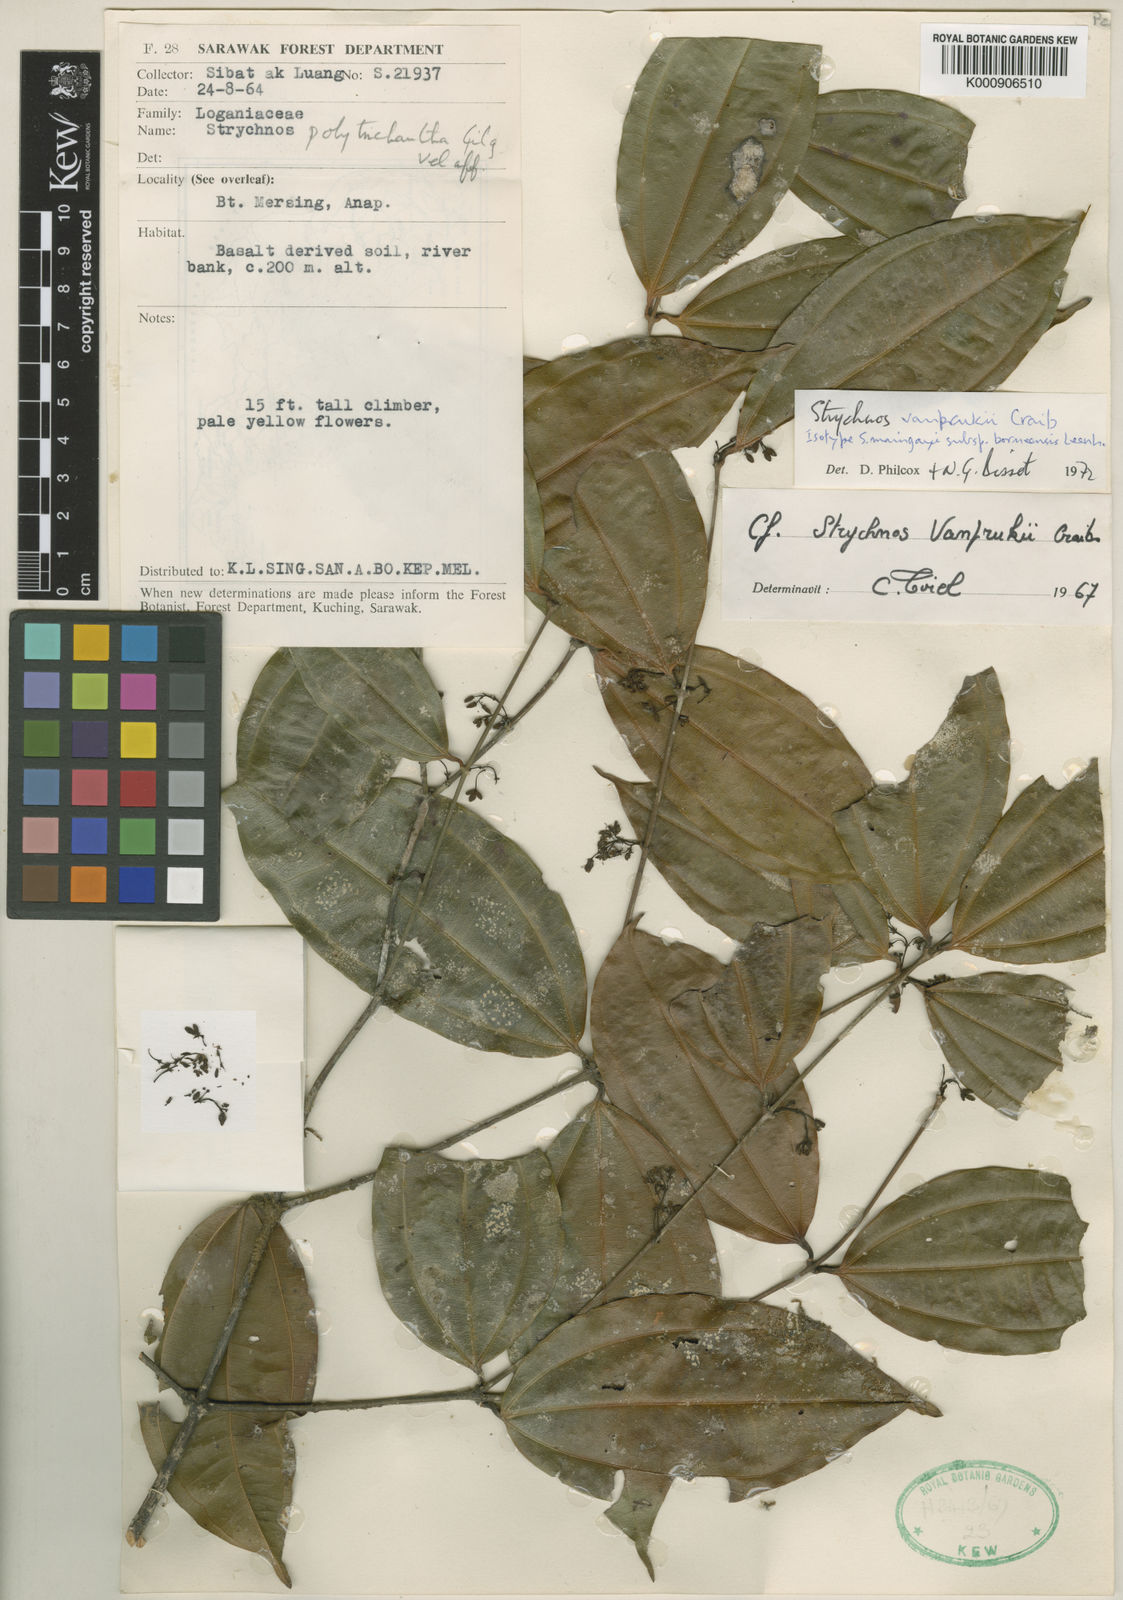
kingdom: Plantae
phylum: Tracheophyta
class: Magnoliopsida
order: Gentianales
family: Loganiaceae
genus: Strychnos
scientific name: Strychnos vanprukii
